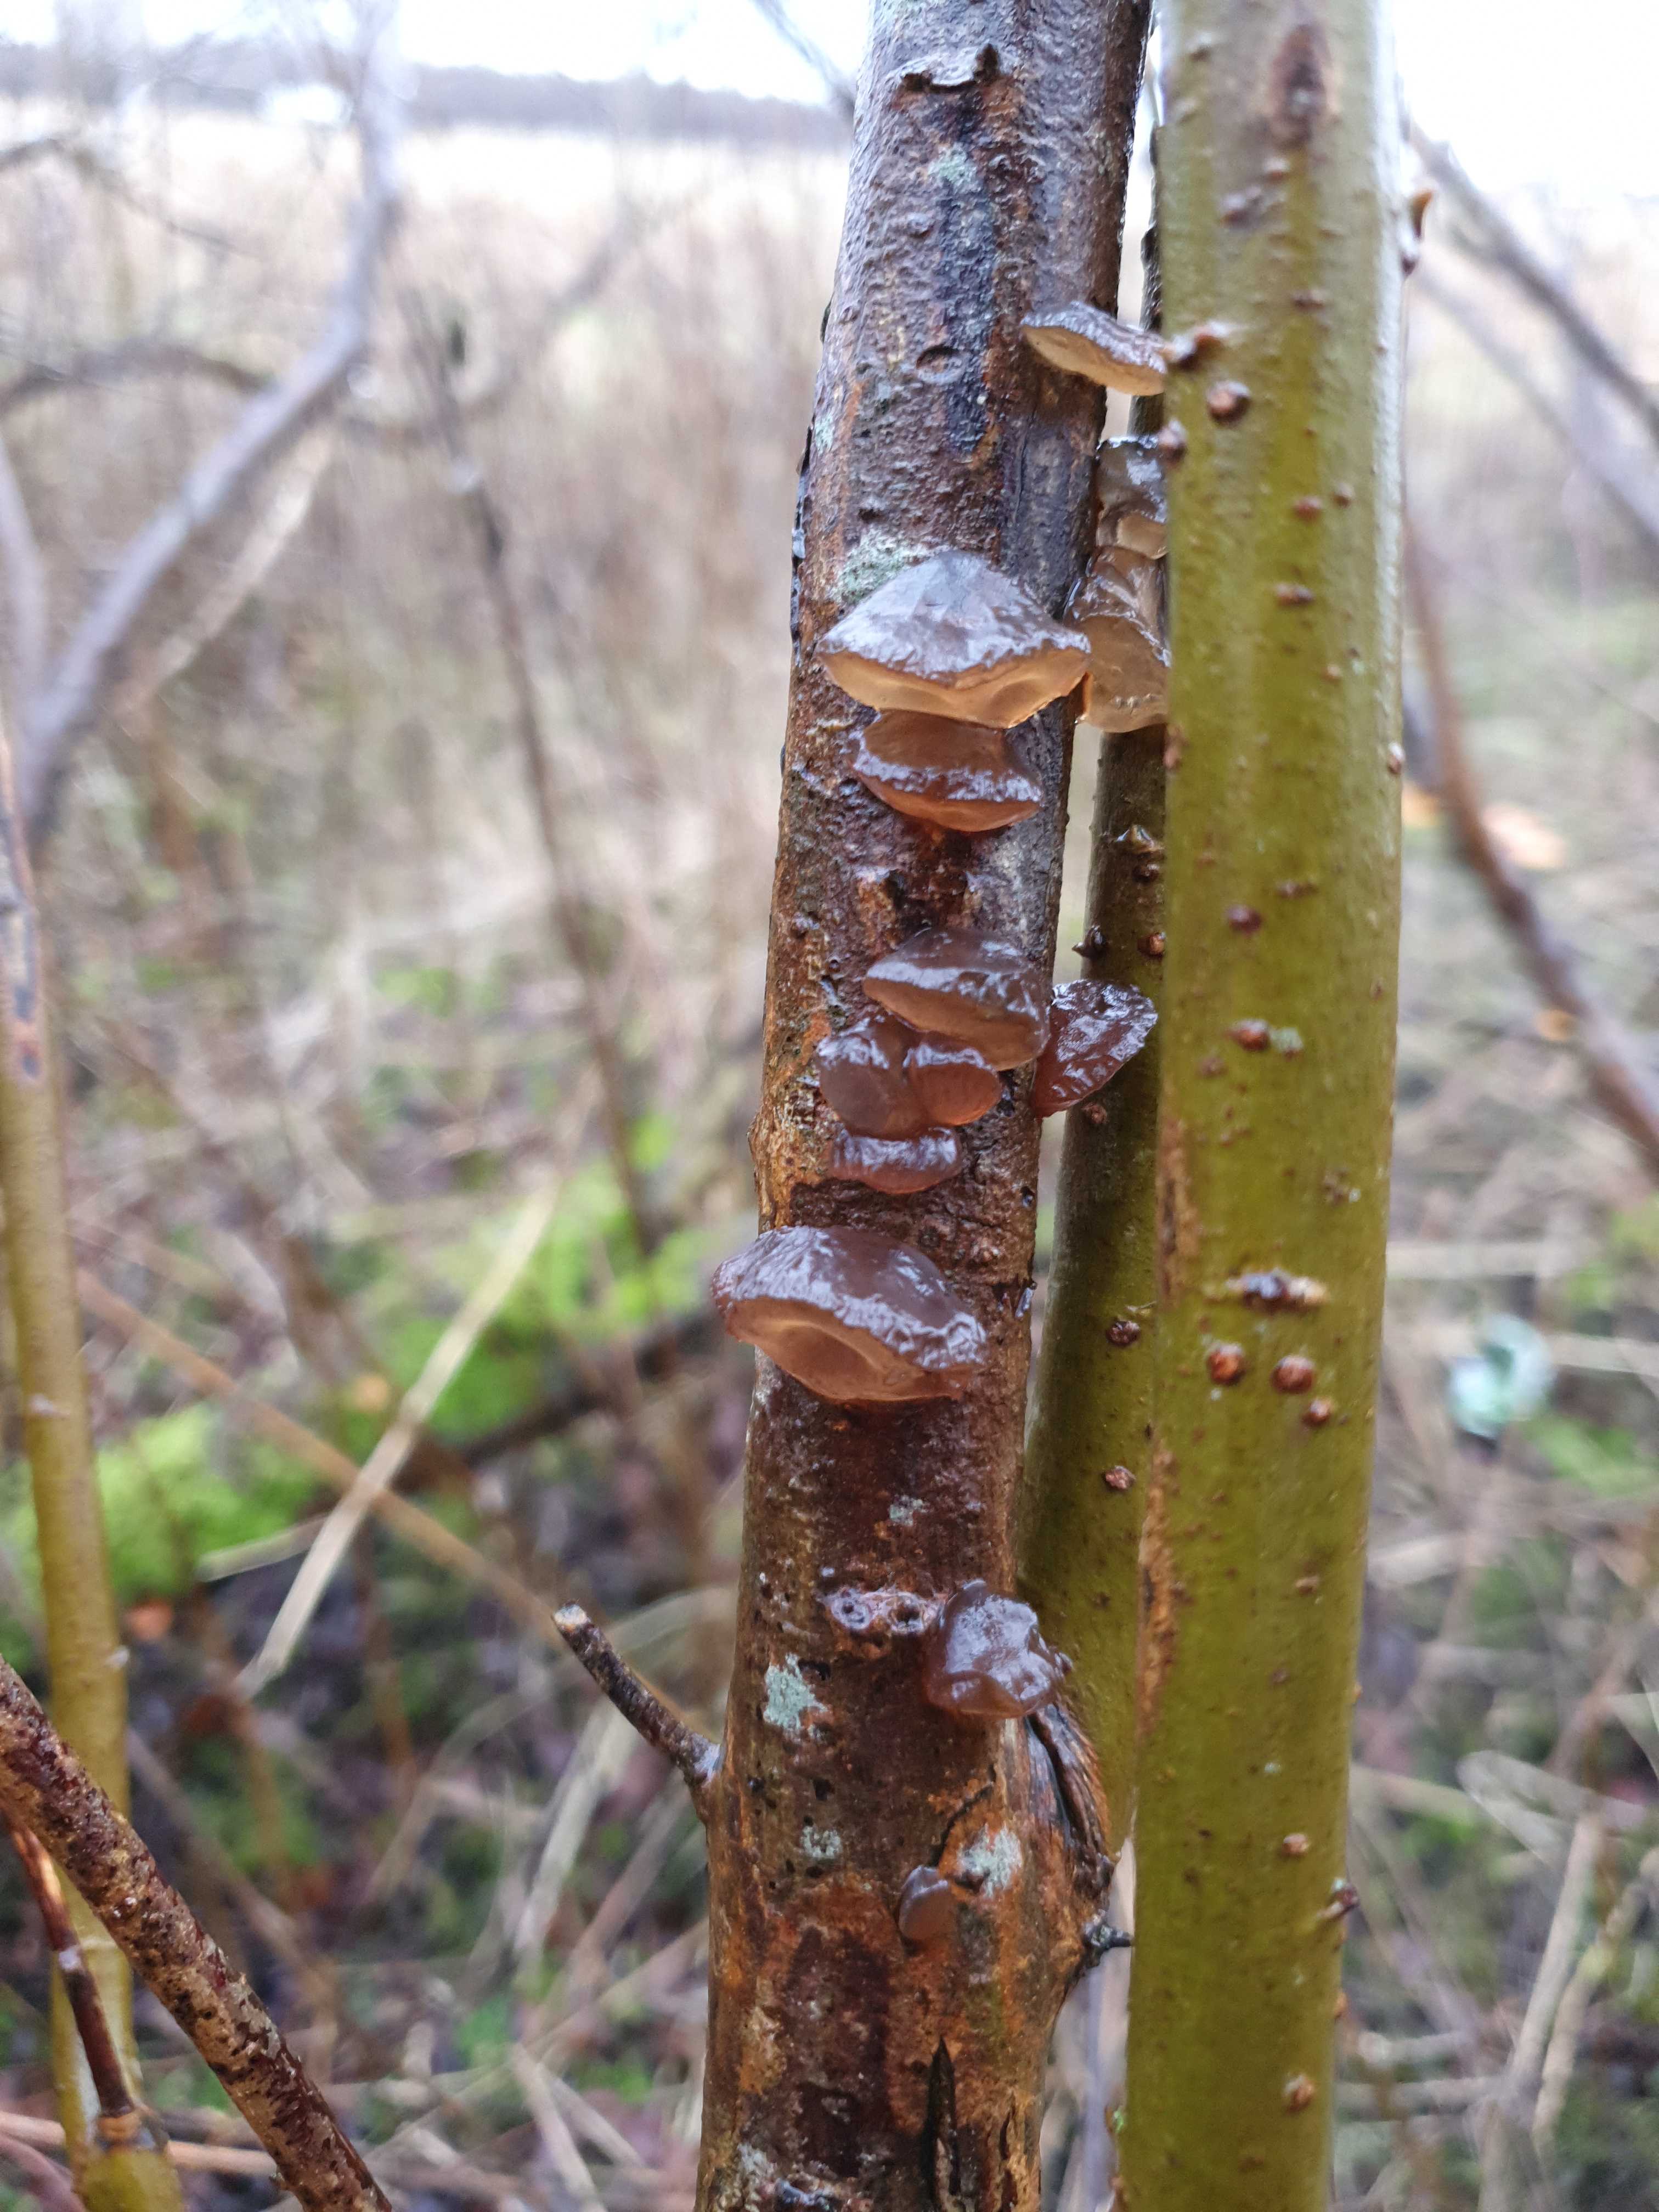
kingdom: Fungi
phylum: Basidiomycota
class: Agaricomycetes
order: Auriculariales
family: Auriculariaceae
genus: Exidia
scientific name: Exidia recisa
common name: pile-bævretop
